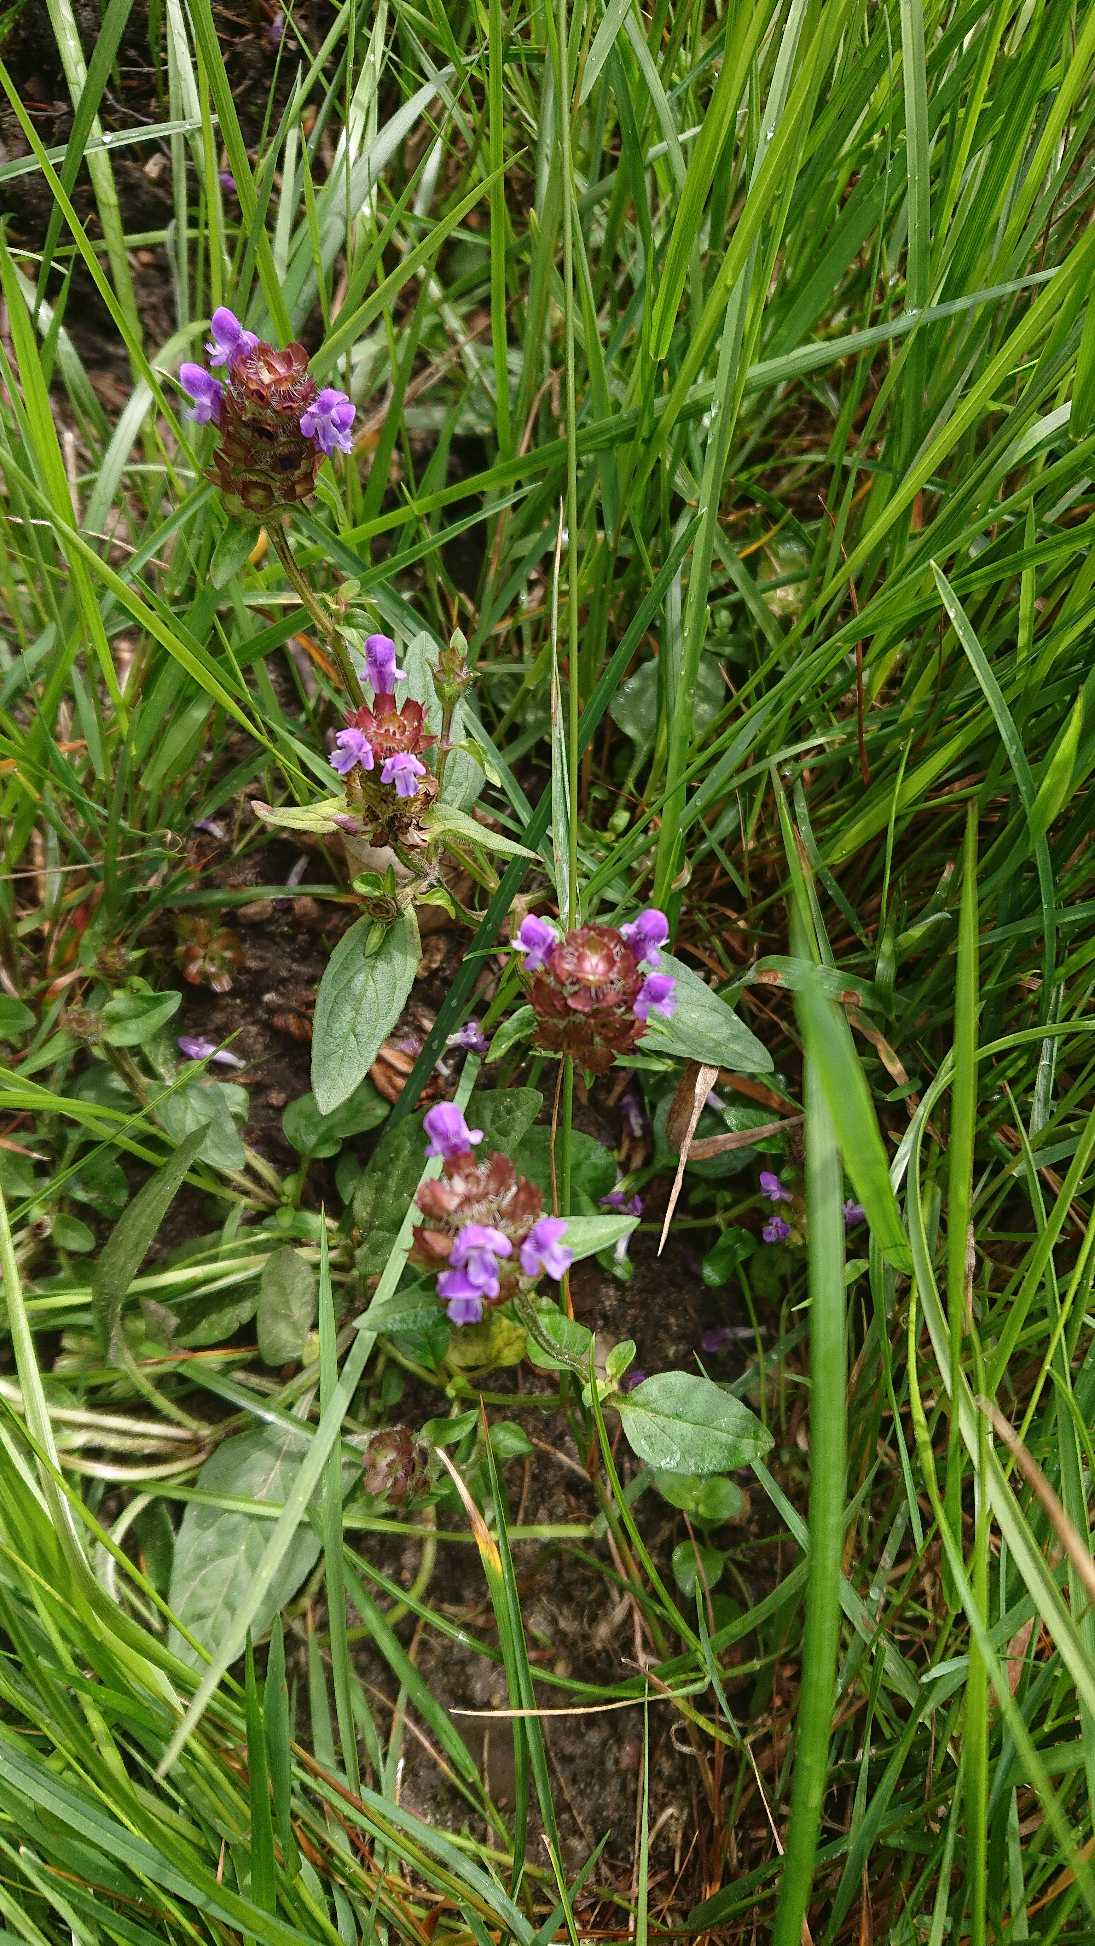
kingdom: Plantae
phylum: Tracheophyta
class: Magnoliopsida
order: Lamiales
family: Lamiaceae
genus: Prunella
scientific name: Prunella vulgaris
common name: Almindelig brunelle
